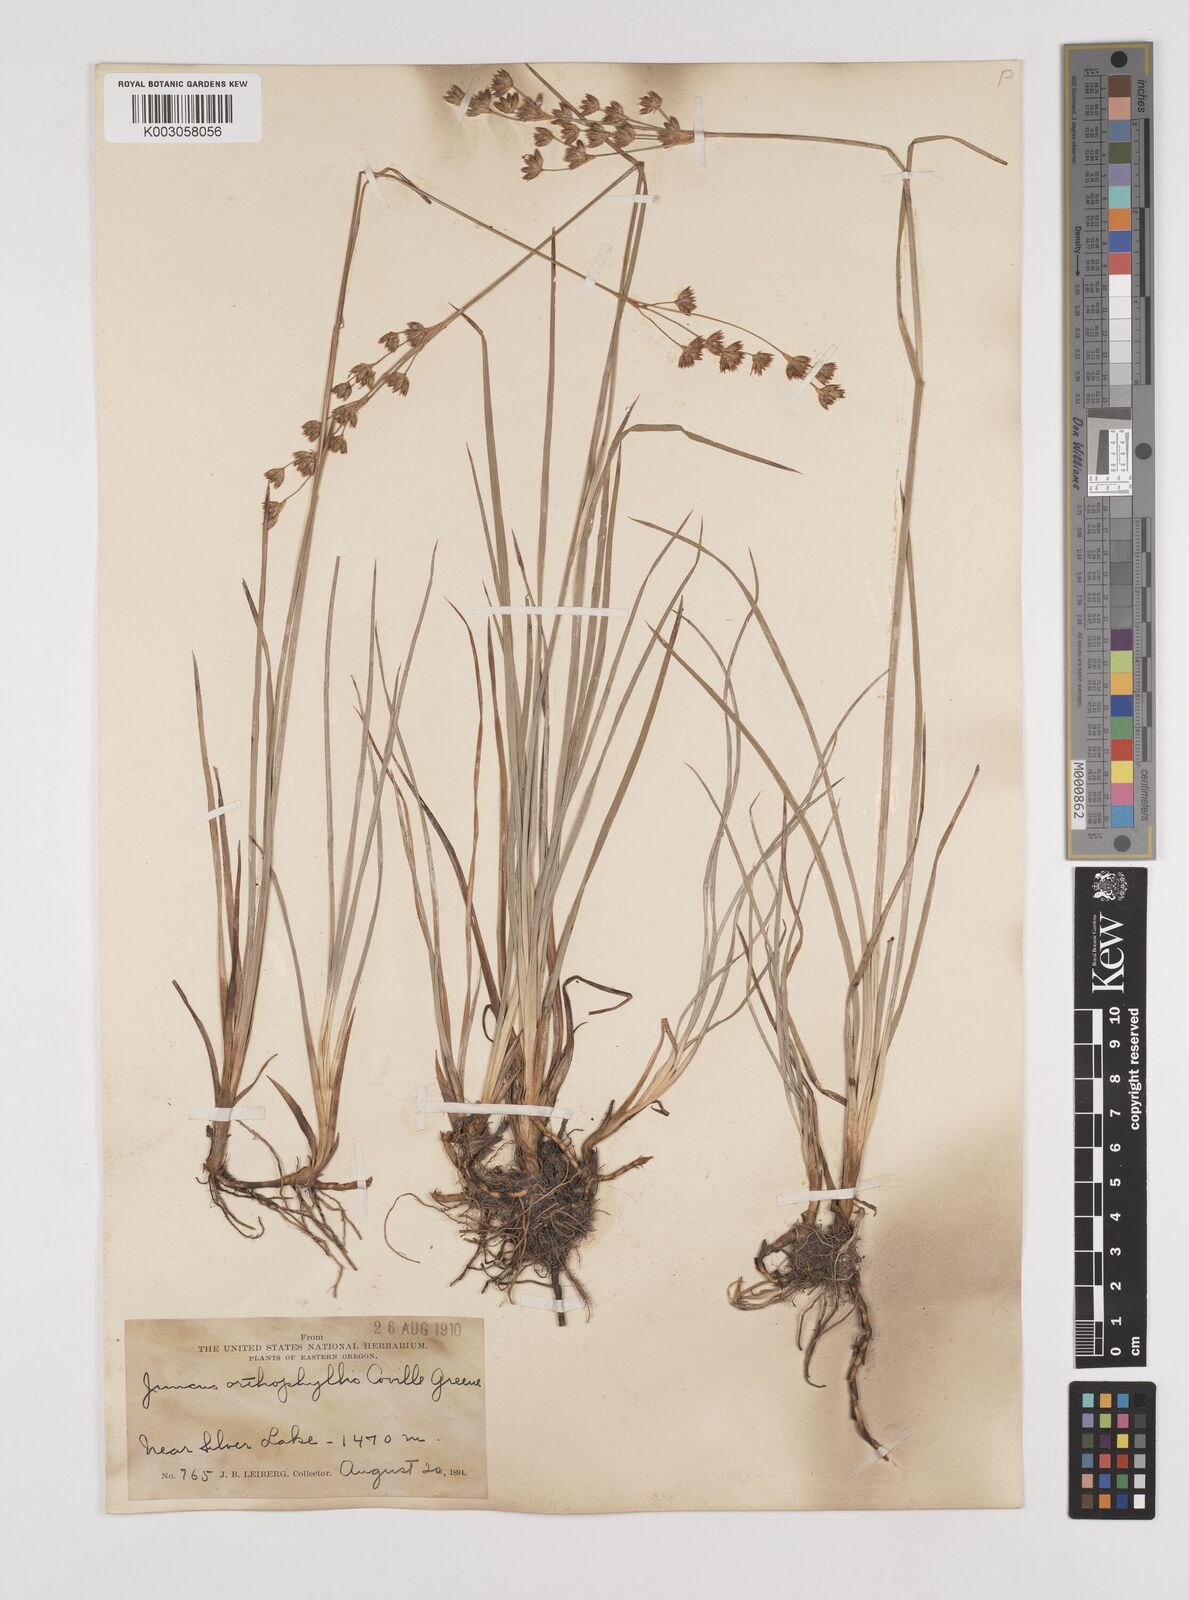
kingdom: Plantae
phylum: Tracheophyta
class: Liliopsida
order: Poales
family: Juncaceae
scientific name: Juncaceae
